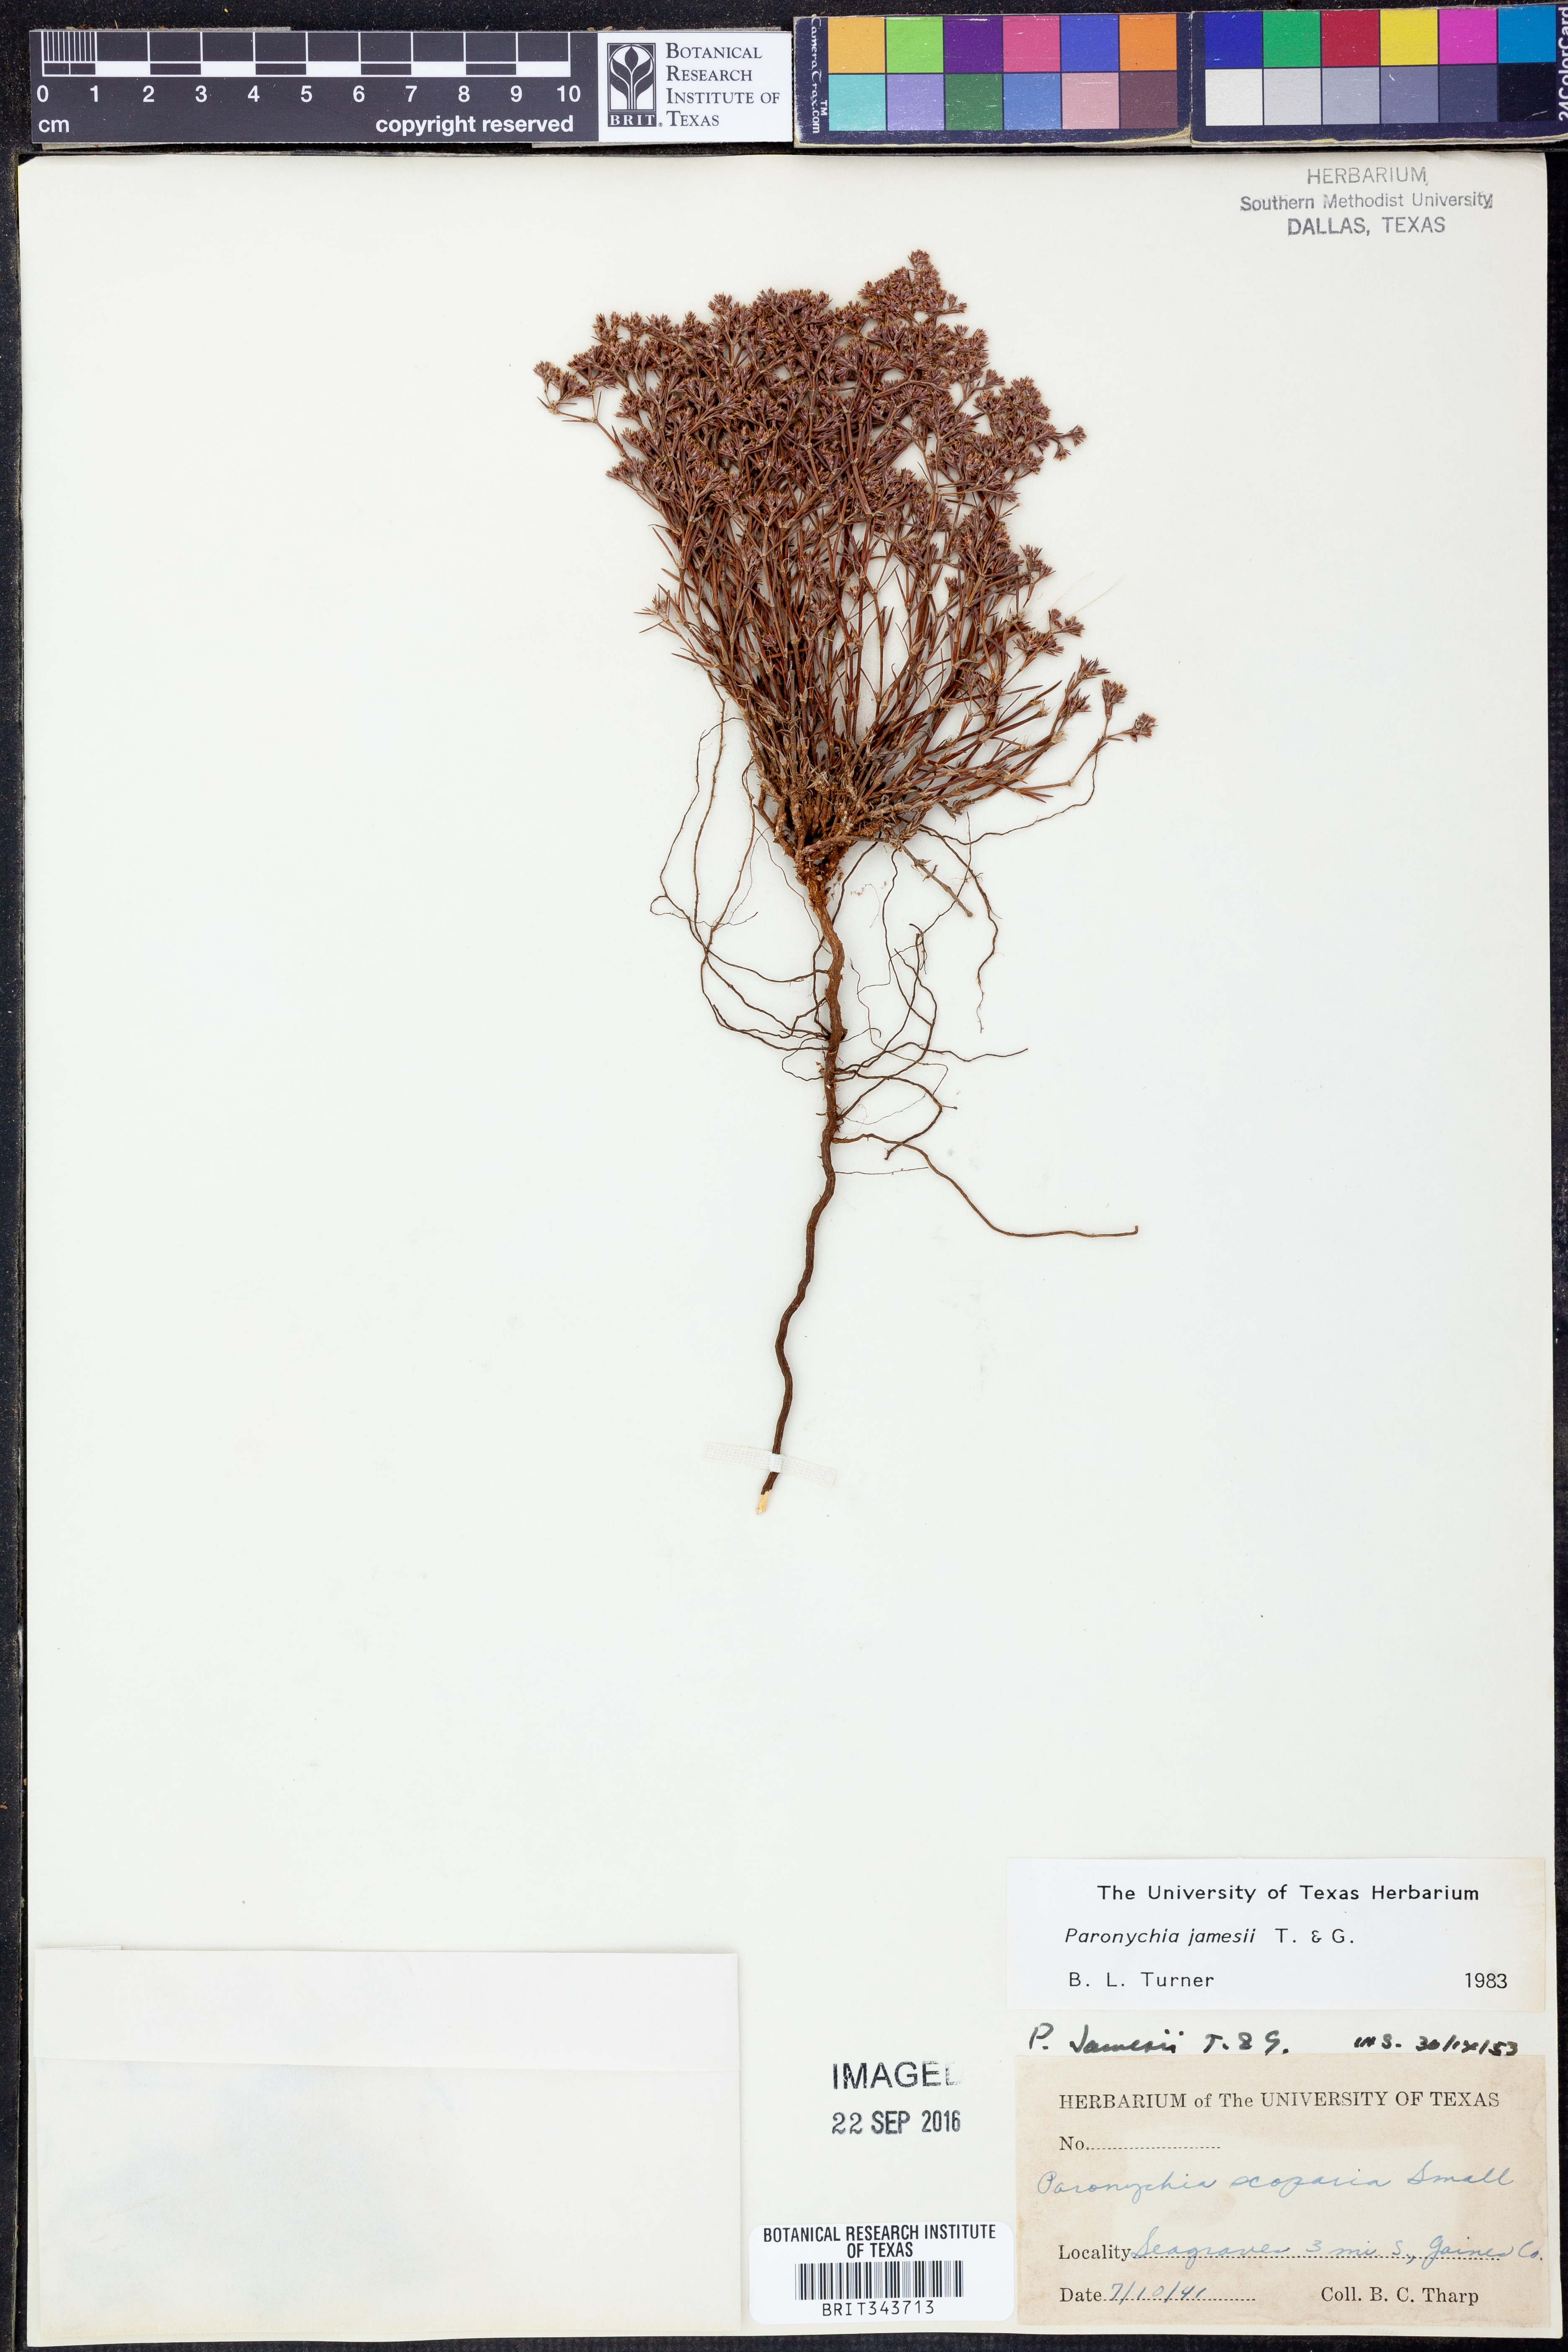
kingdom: Plantae
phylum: Tracheophyta
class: Magnoliopsida
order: Caryophyllales
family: Caryophyllaceae
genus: Paronychia
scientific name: Paronychia jamesii
